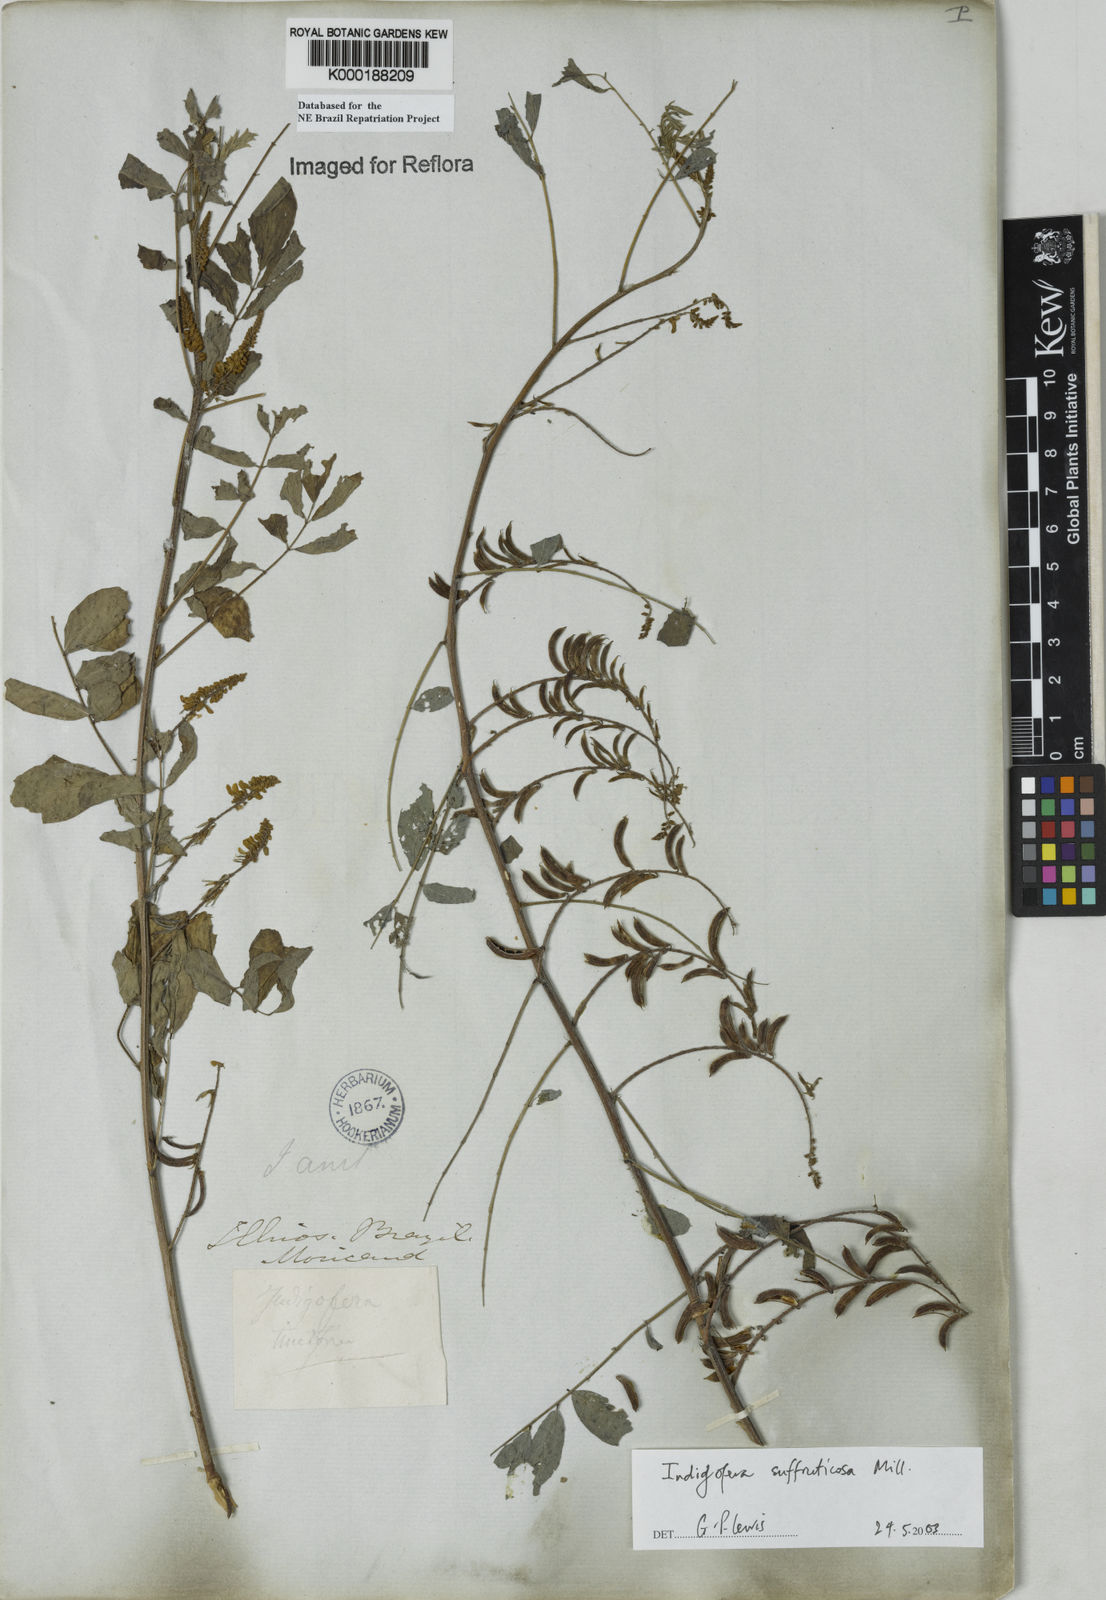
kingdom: Plantae
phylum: Tracheophyta
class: Magnoliopsida
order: Fabales
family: Fabaceae
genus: Indigofera
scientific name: Indigofera suffruticosa
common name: Anil de pasto
